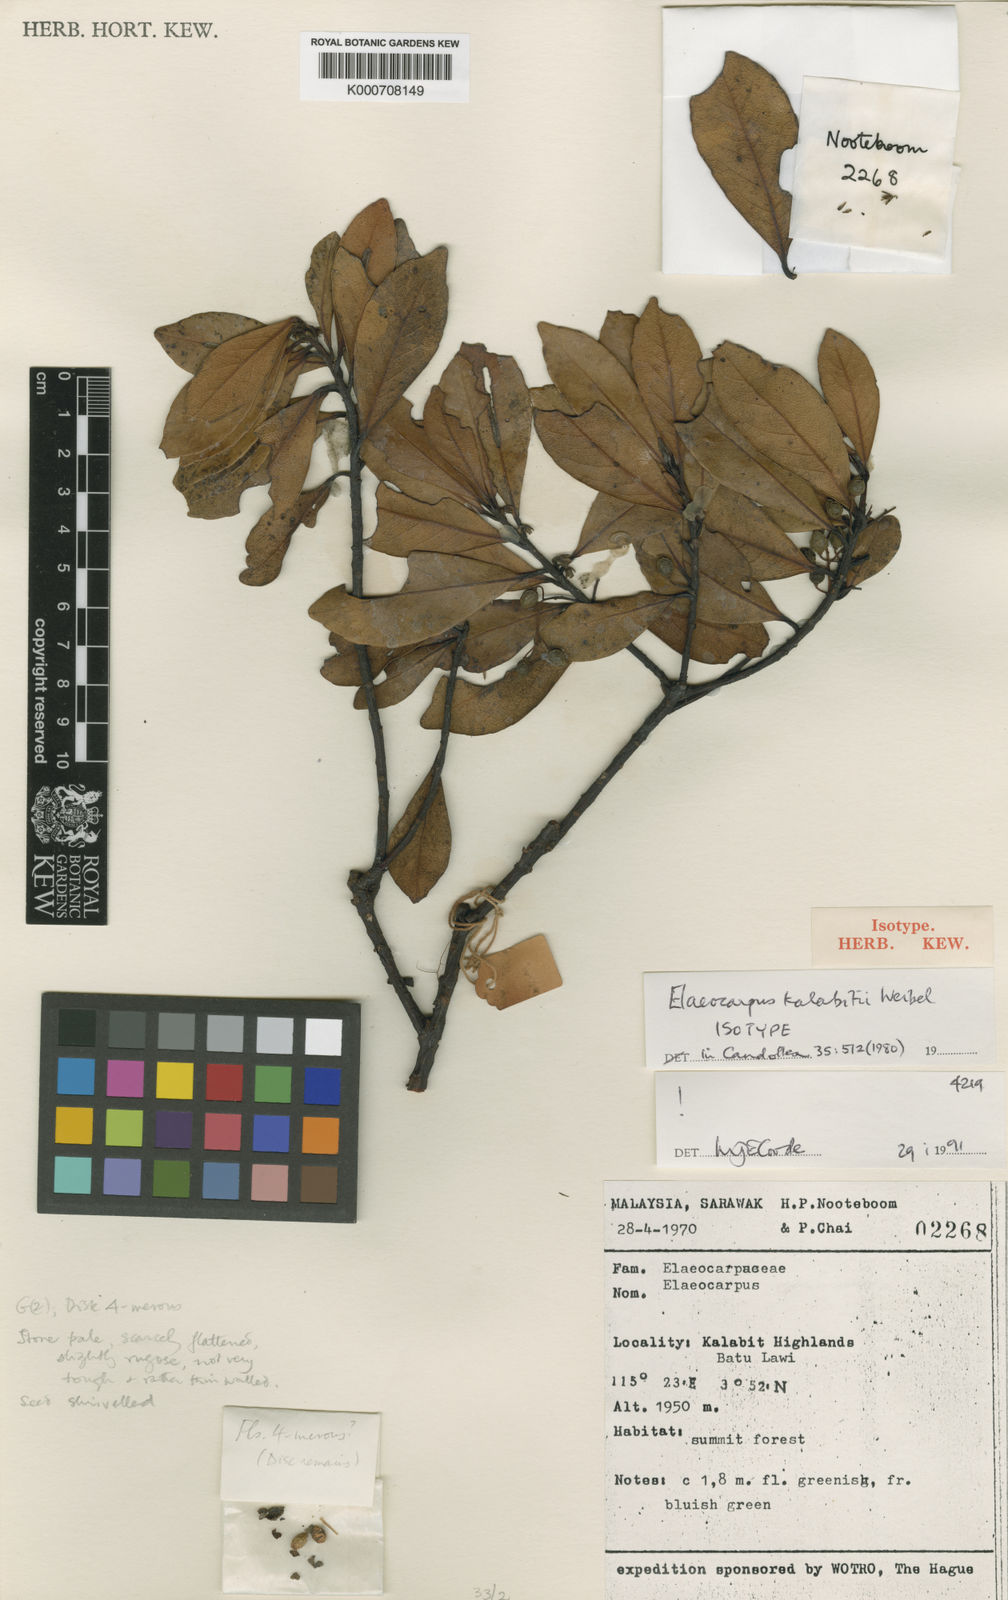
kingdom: Plantae
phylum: Tracheophyta
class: Magnoliopsida
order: Oxalidales
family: Elaeocarpaceae
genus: Elaeocarpus
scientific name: Elaeocarpus kalabitii
